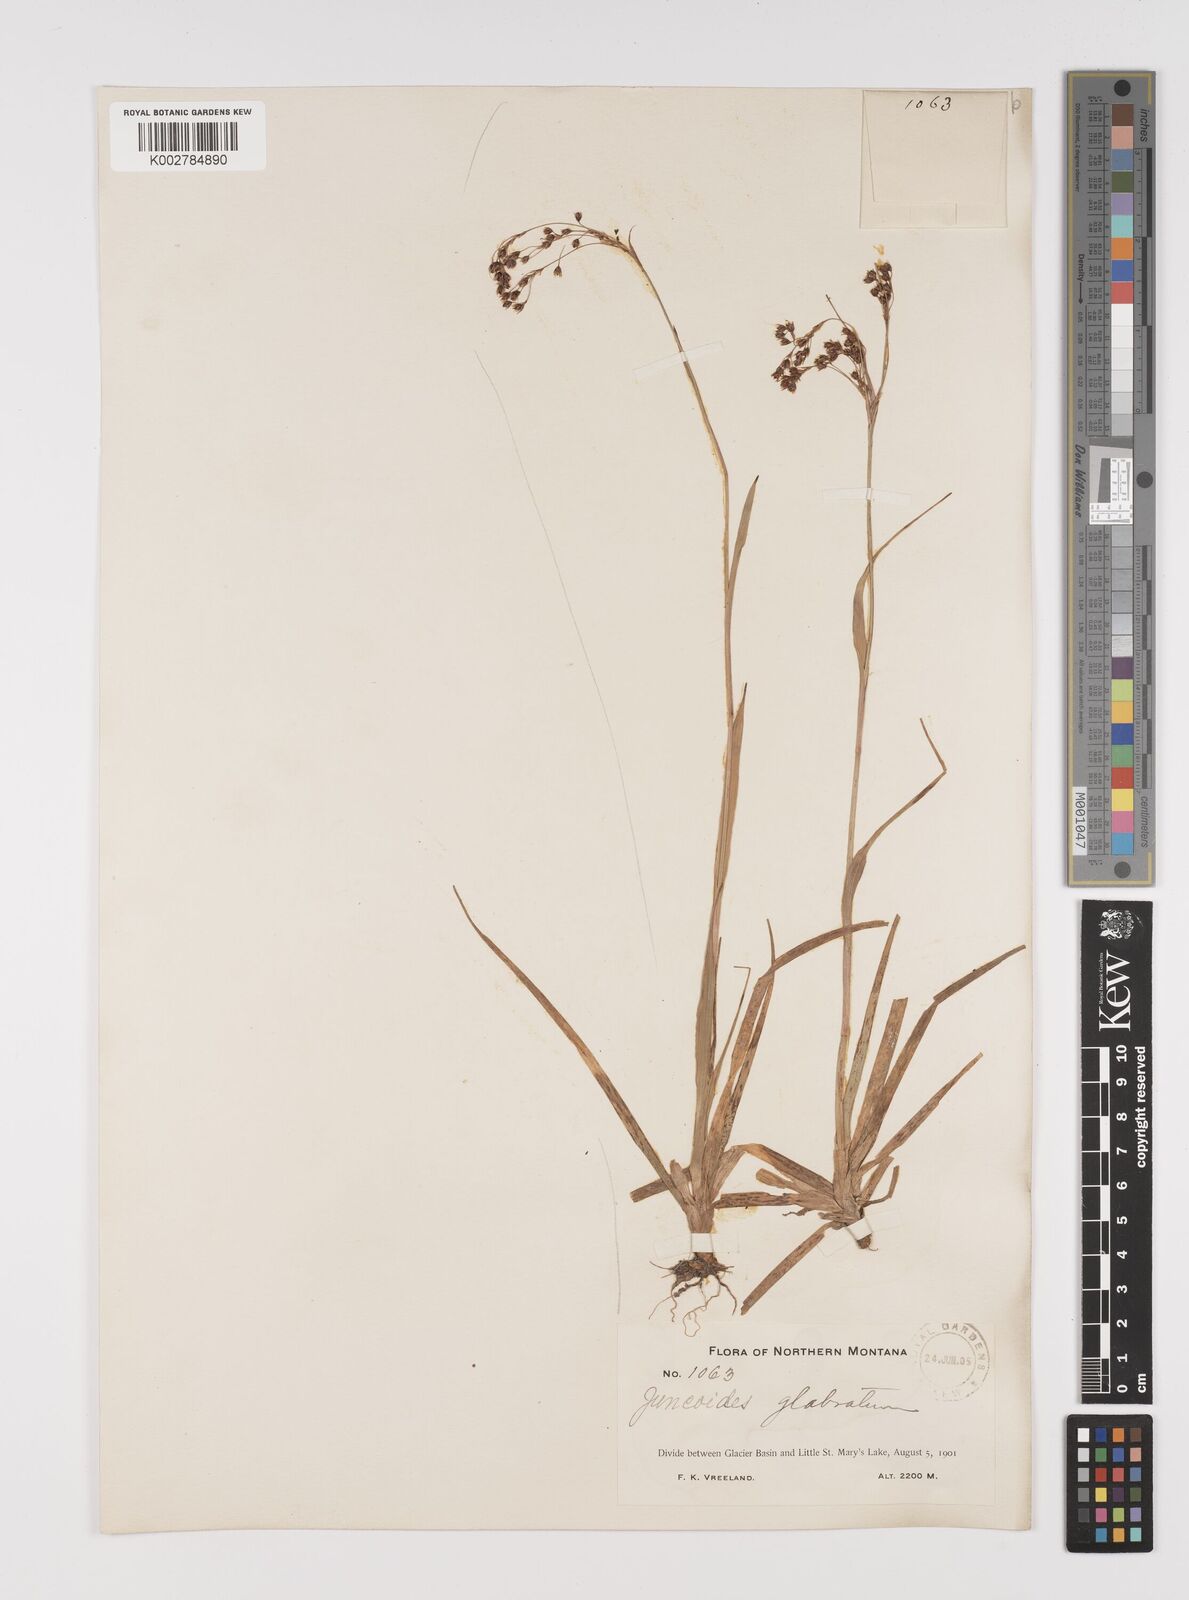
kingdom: Plantae
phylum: Tracheophyta
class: Liliopsida
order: Poales
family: Juncaceae
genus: Luzula
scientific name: Luzula glabrata
